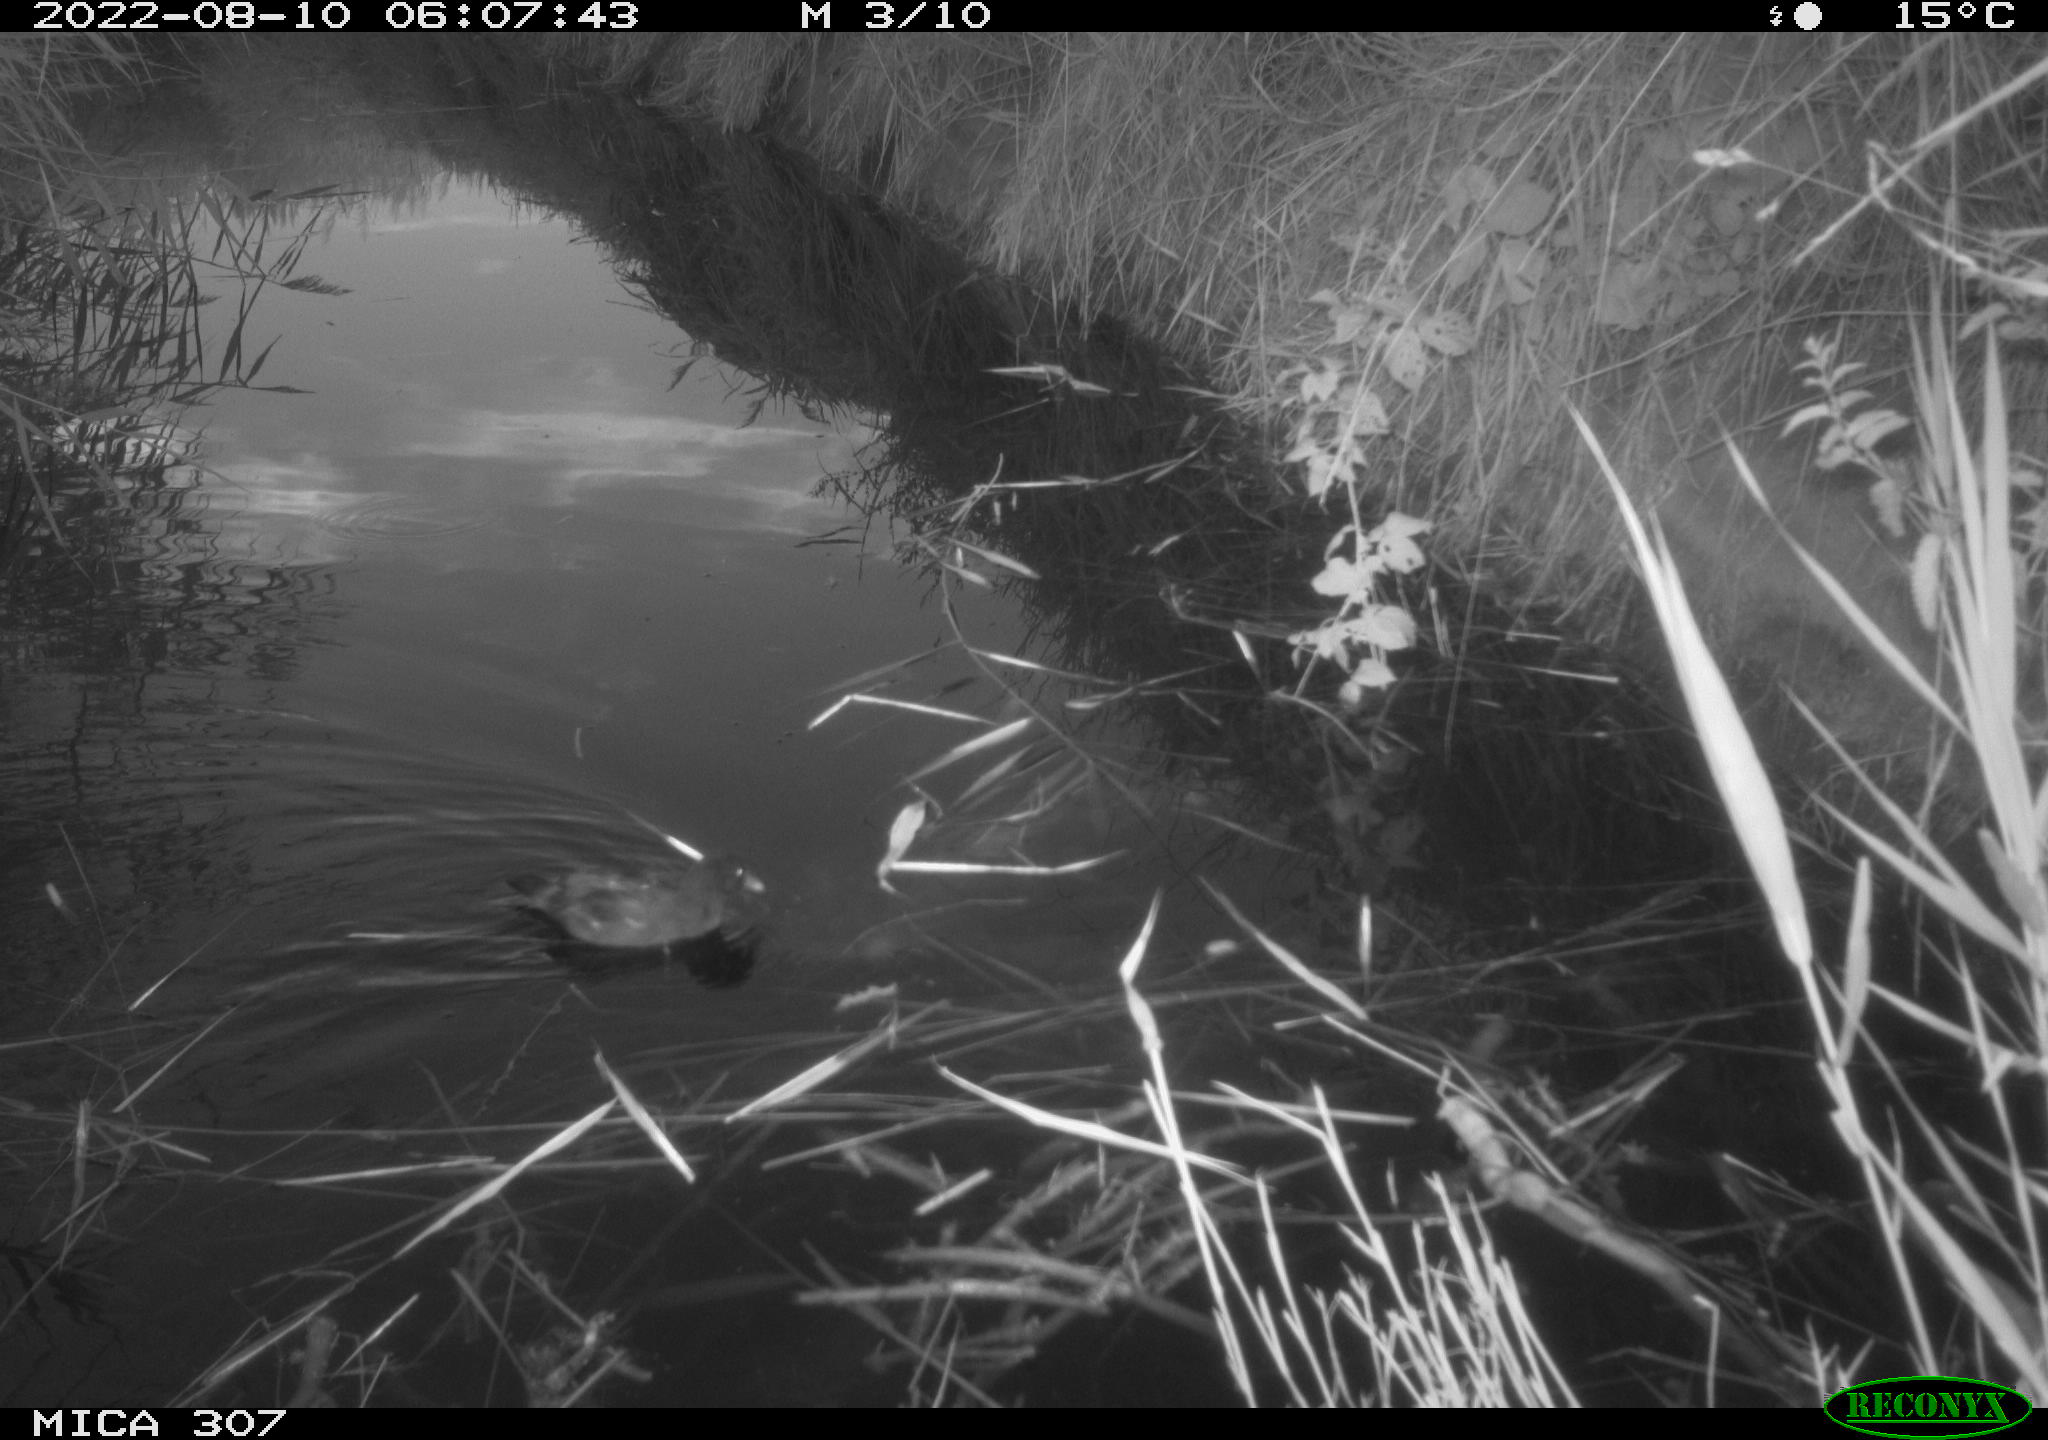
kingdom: Animalia
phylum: Chordata
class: Aves
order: Gruiformes
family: Rallidae
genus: Gallinula
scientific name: Gallinula chloropus
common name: Common moorhen
